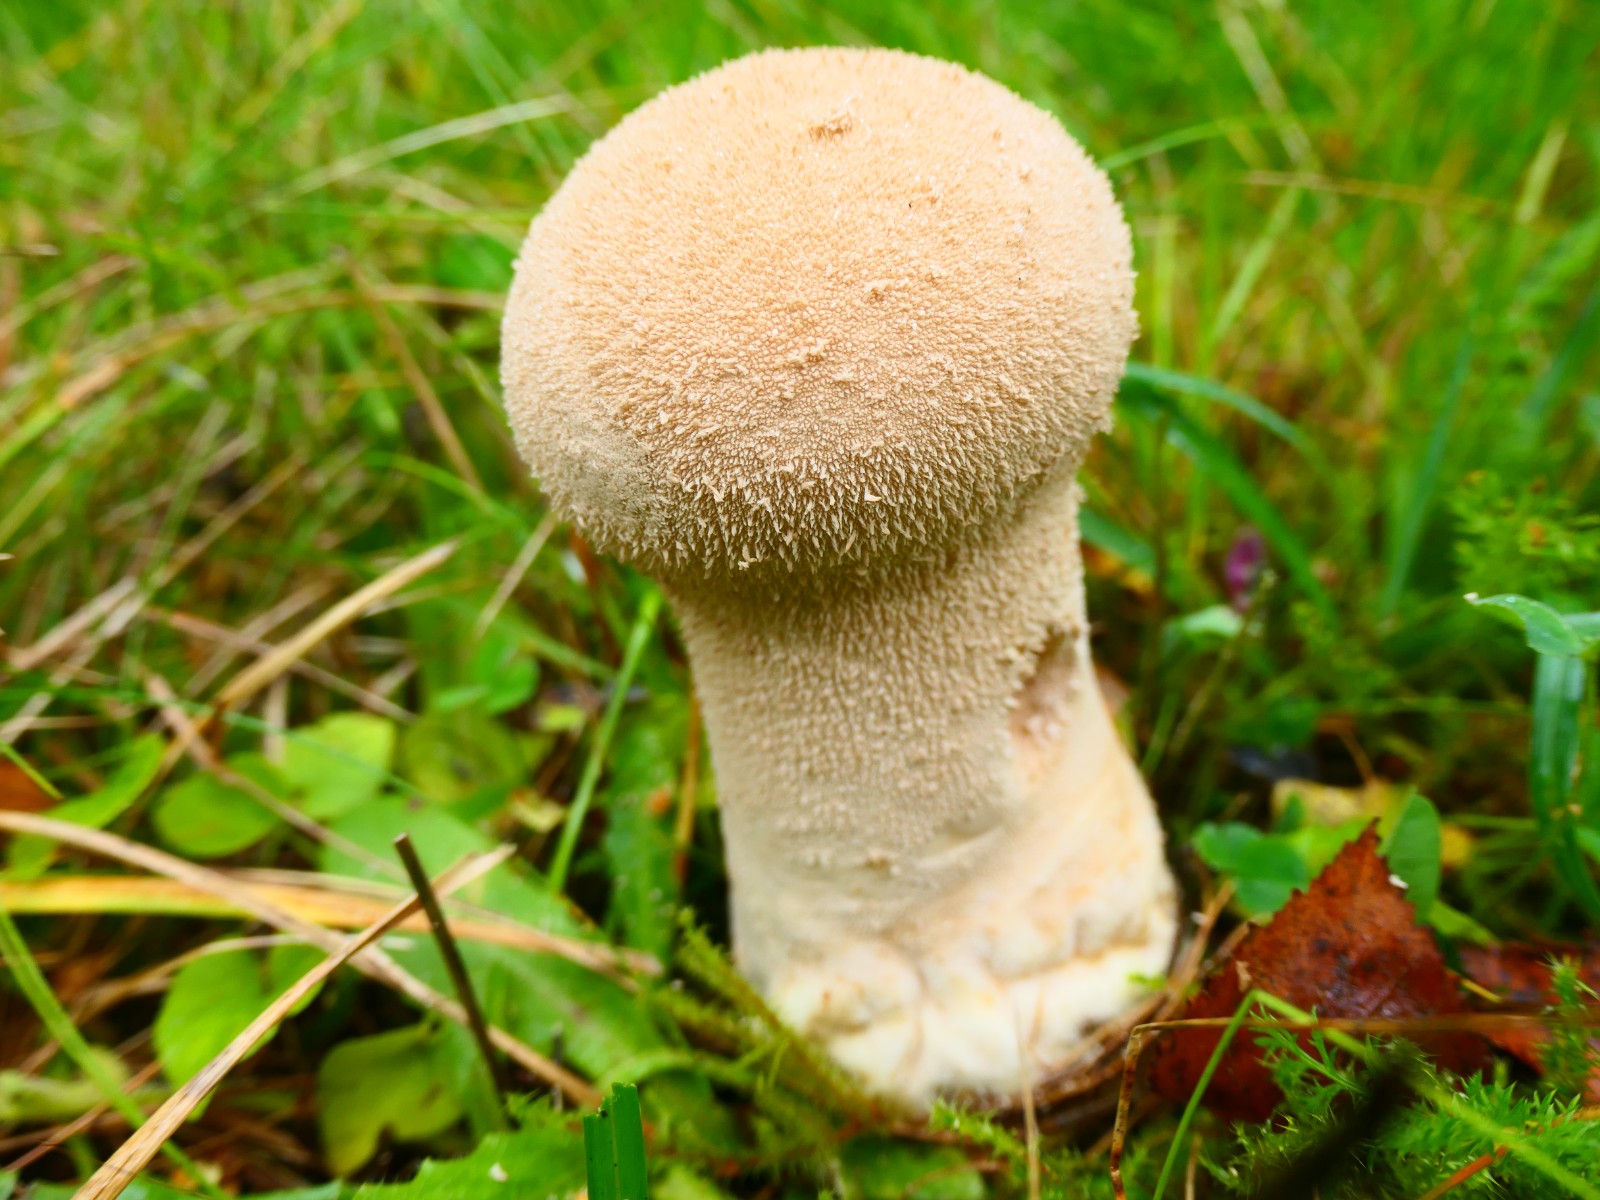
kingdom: Fungi
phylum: Basidiomycota
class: Agaricomycetes
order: Agaricales
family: Lycoperdaceae
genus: Lycoperdon
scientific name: Lycoperdon excipuliforme
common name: højstokket støvbold
